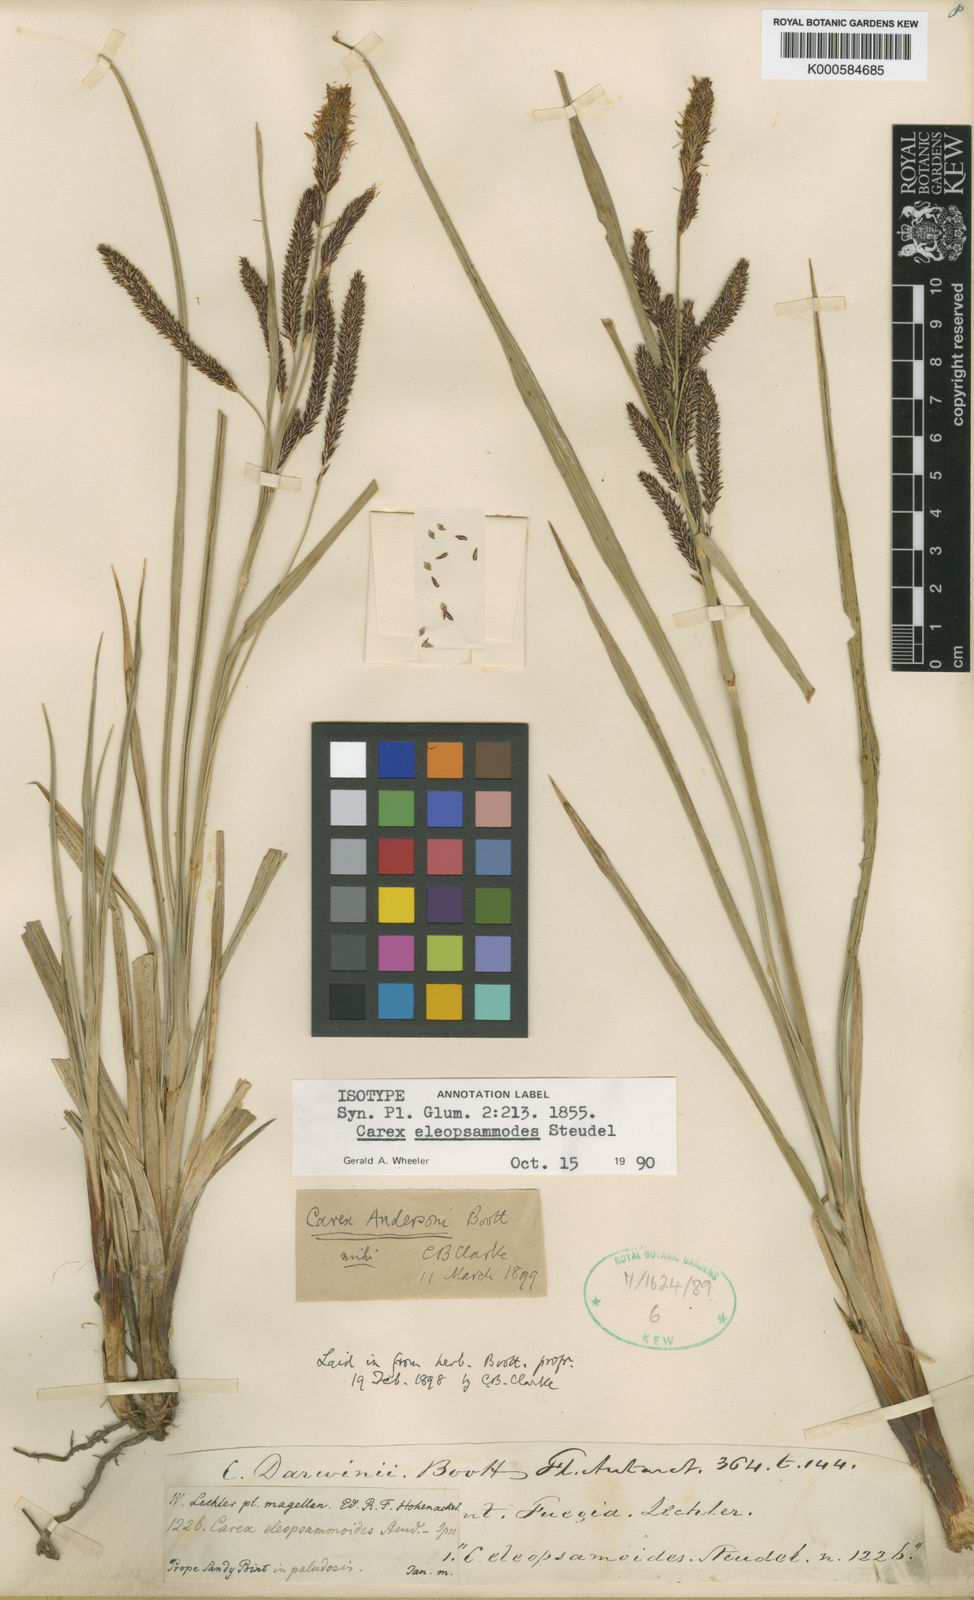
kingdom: Plantae
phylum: Tracheophyta
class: Liliopsida
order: Poales
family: Cyperaceae
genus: Carex
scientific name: Carex andersonii
